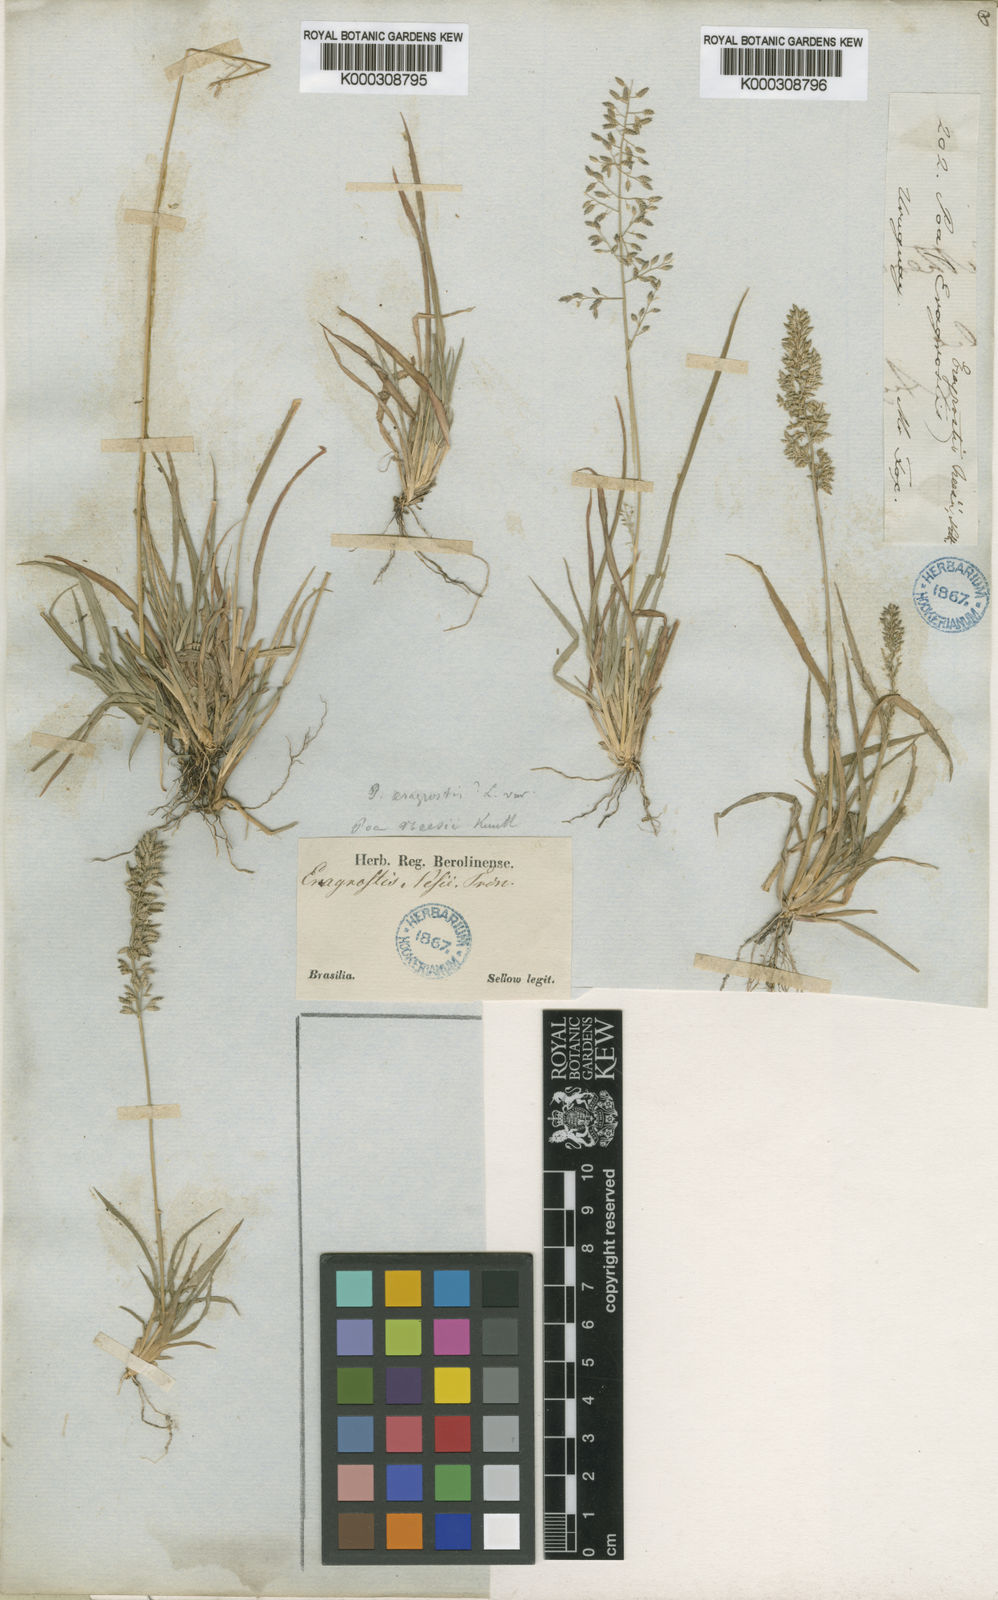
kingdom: Plantae
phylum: Tracheophyta
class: Liliopsida
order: Poales
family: Poaceae
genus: Eragrostis
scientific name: Eragrostis neesii
